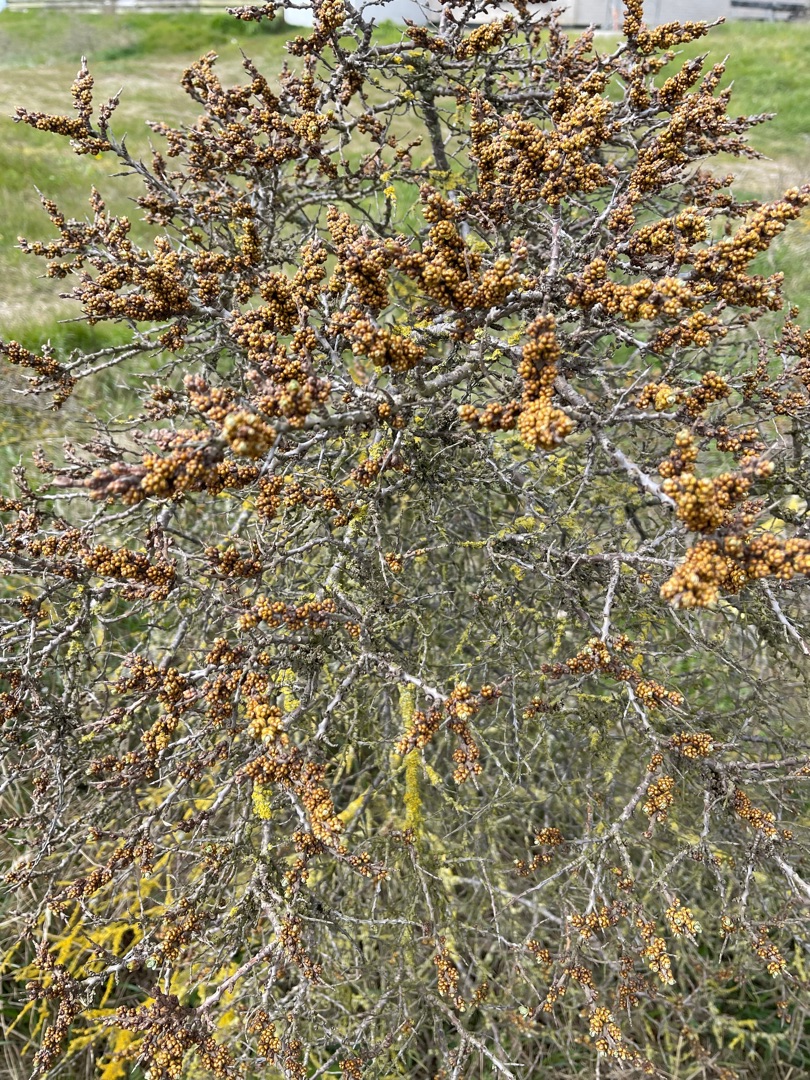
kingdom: Plantae
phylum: Tracheophyta
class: Magnoliopsida
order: Rosales
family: Elaeagnaceae
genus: Hippophae
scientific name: Hippophae rhamnoides
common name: Havtorn
